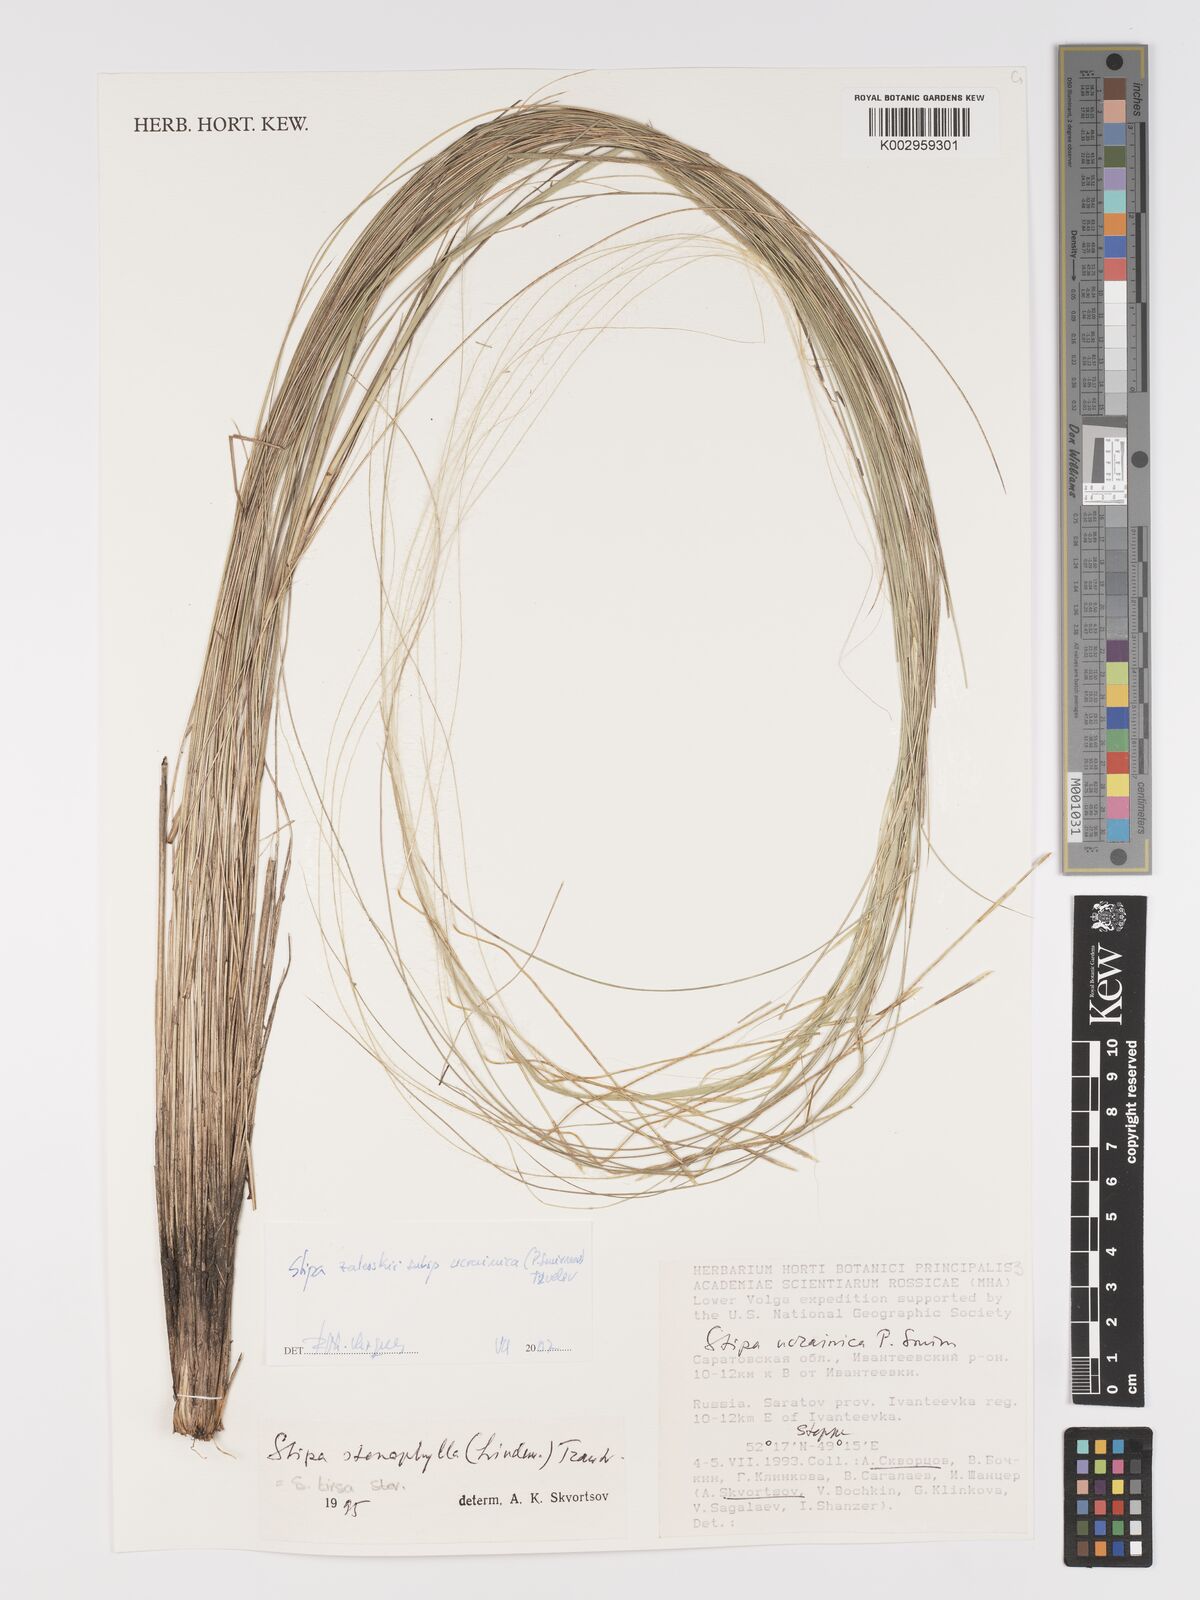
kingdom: Plantae
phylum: Tracheophyta
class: Liliopsida
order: Poales
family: Poaceae
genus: Stipa
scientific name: Stipa zalesskyi
